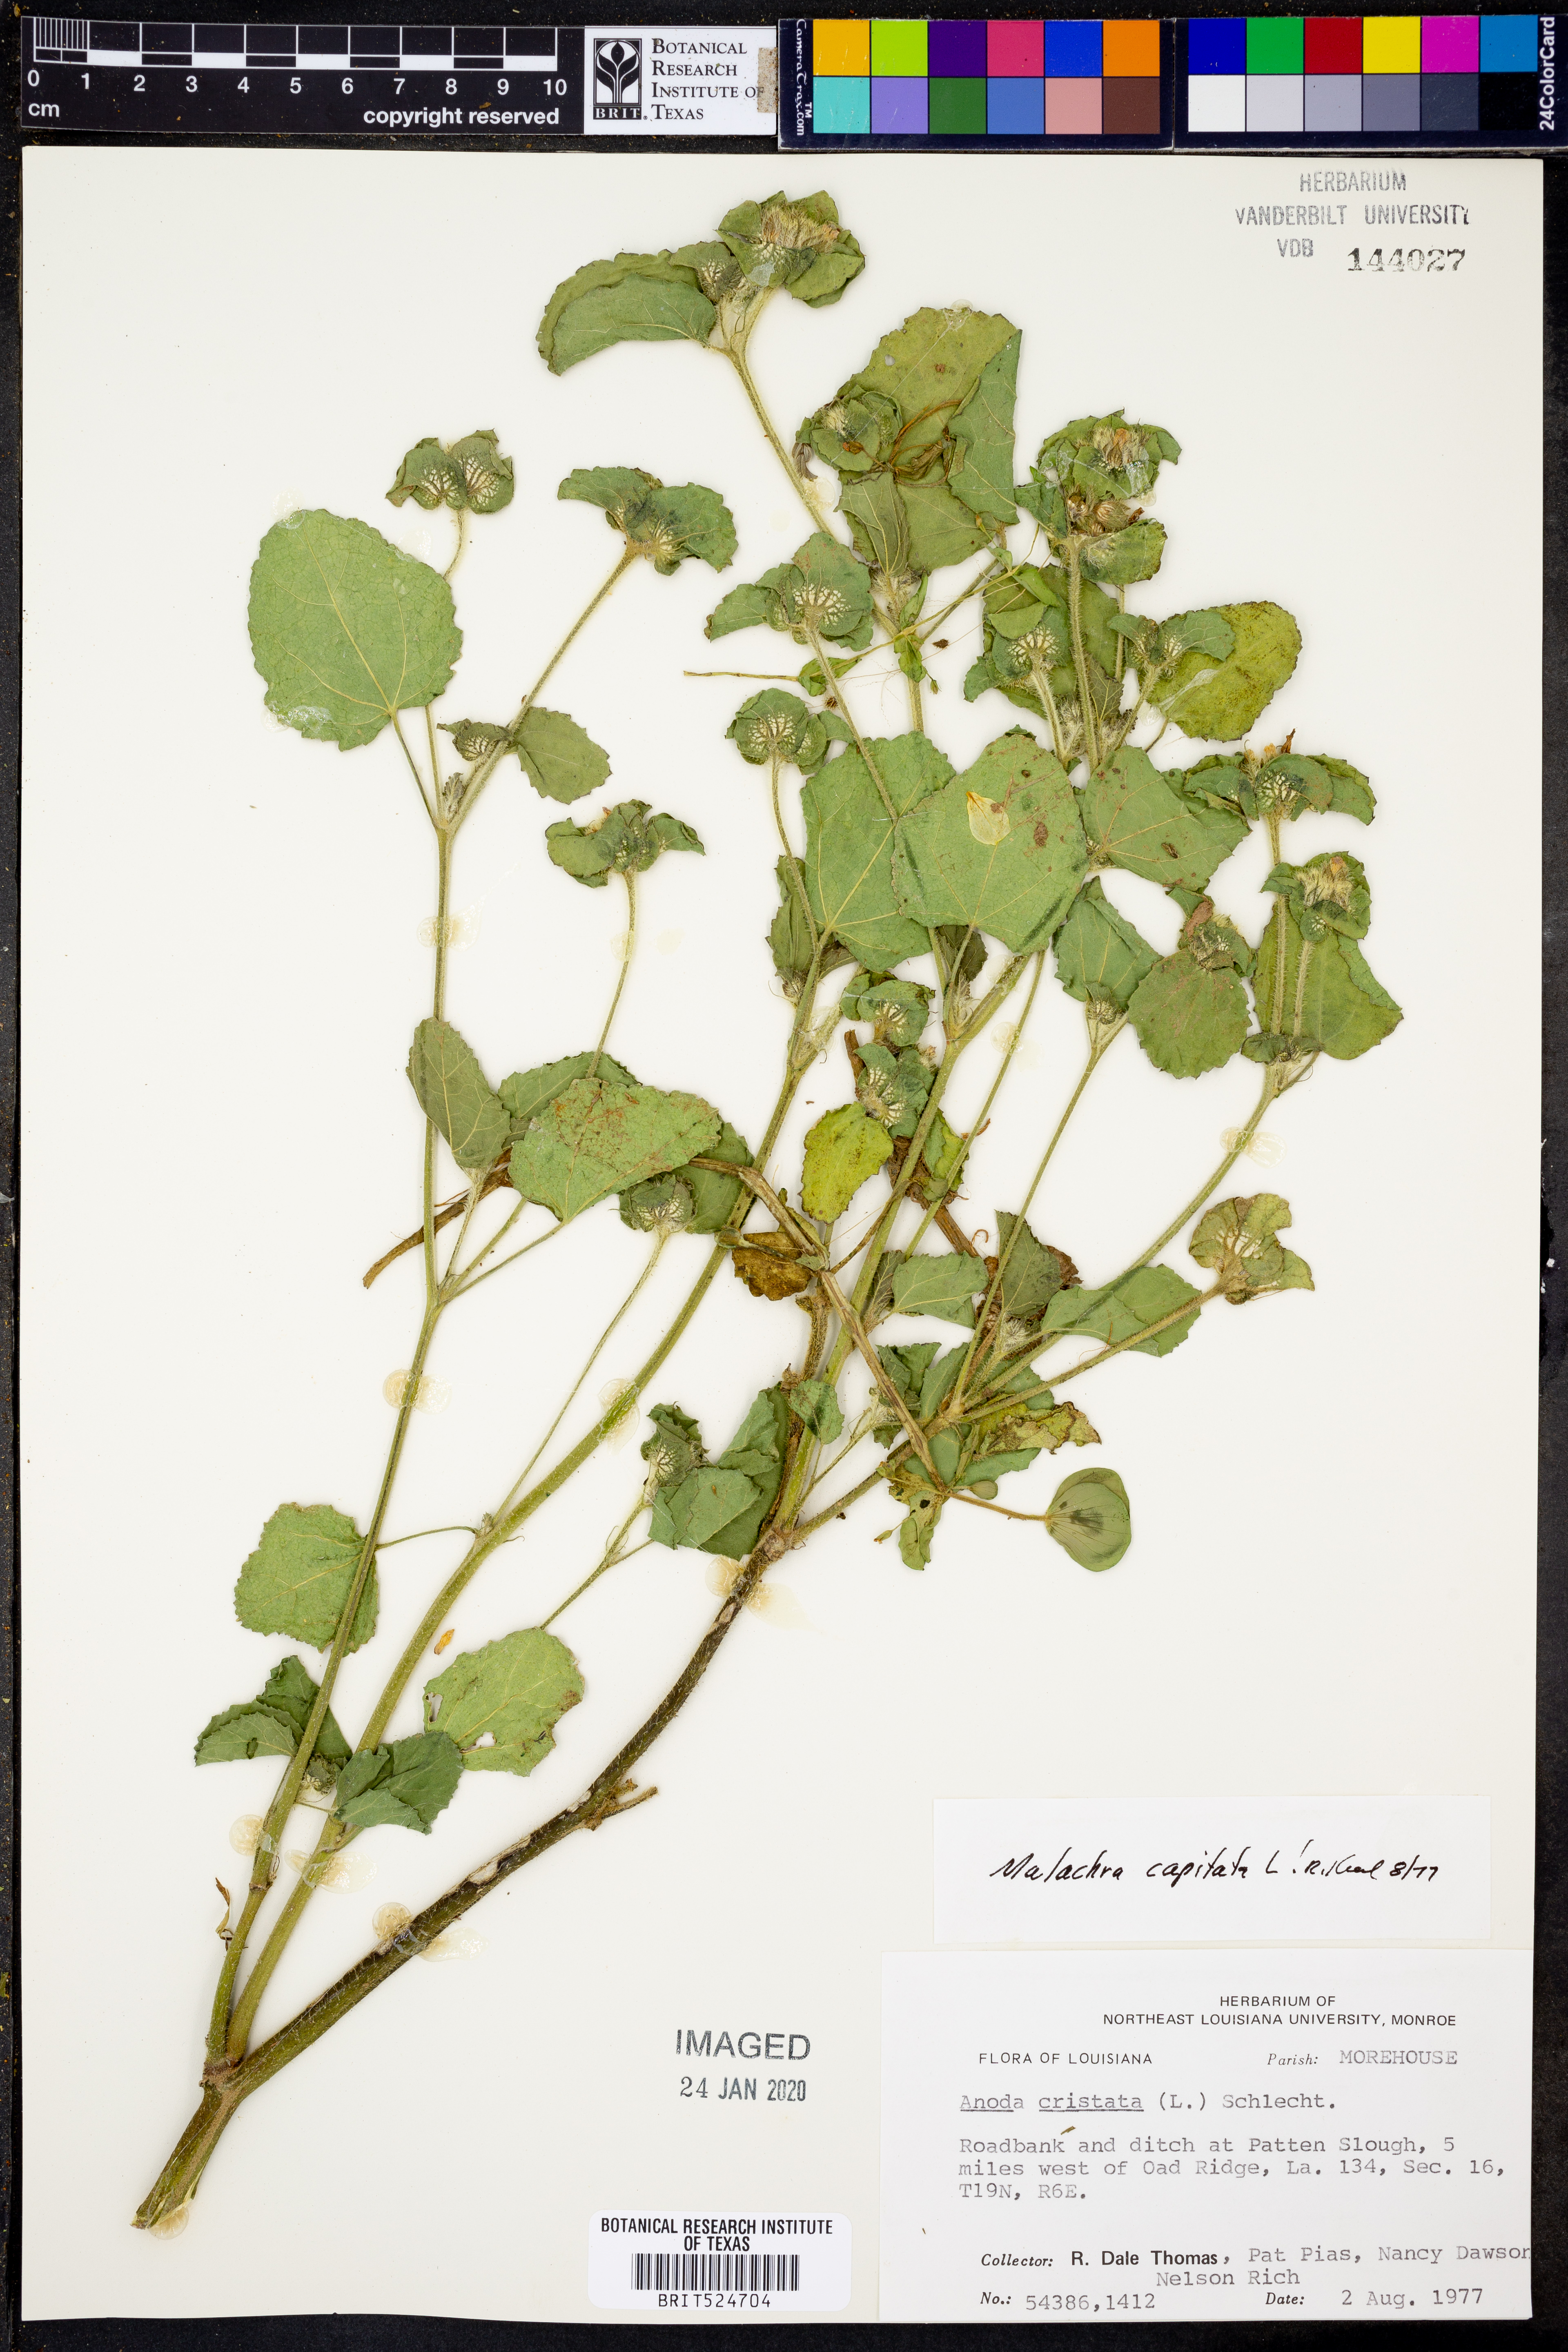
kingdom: Plantae
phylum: Tracheophyta
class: Magnoliopsida
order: Malvales
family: Malvaceae
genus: Malachra
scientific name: Malachra capitata
